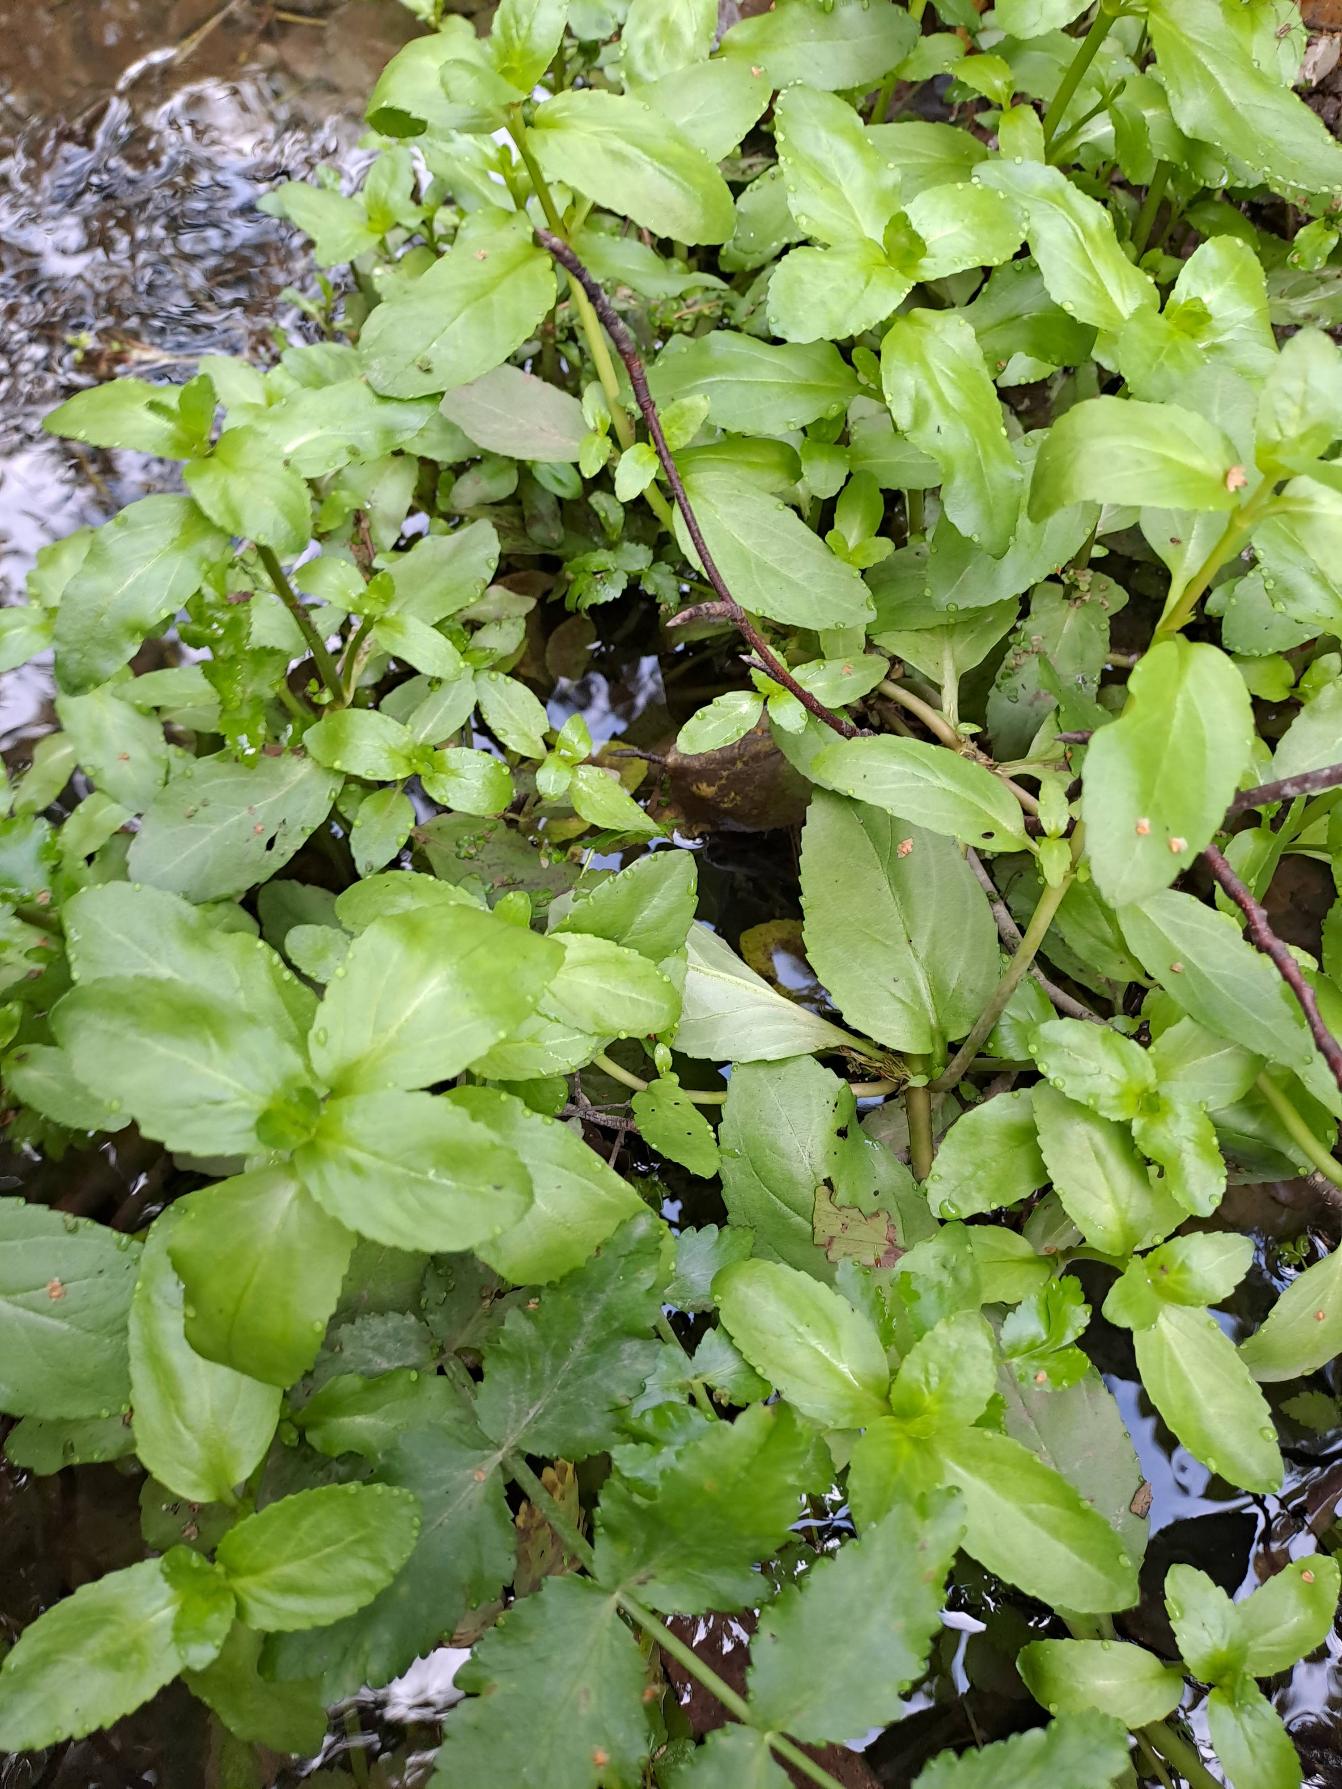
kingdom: Plantae
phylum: Tracheophyta
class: Magnoliopsida
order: Lamiales
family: Plantaginaceae
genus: Veronica
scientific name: Veronica beccabunga
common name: Tykbladet ærenpris
